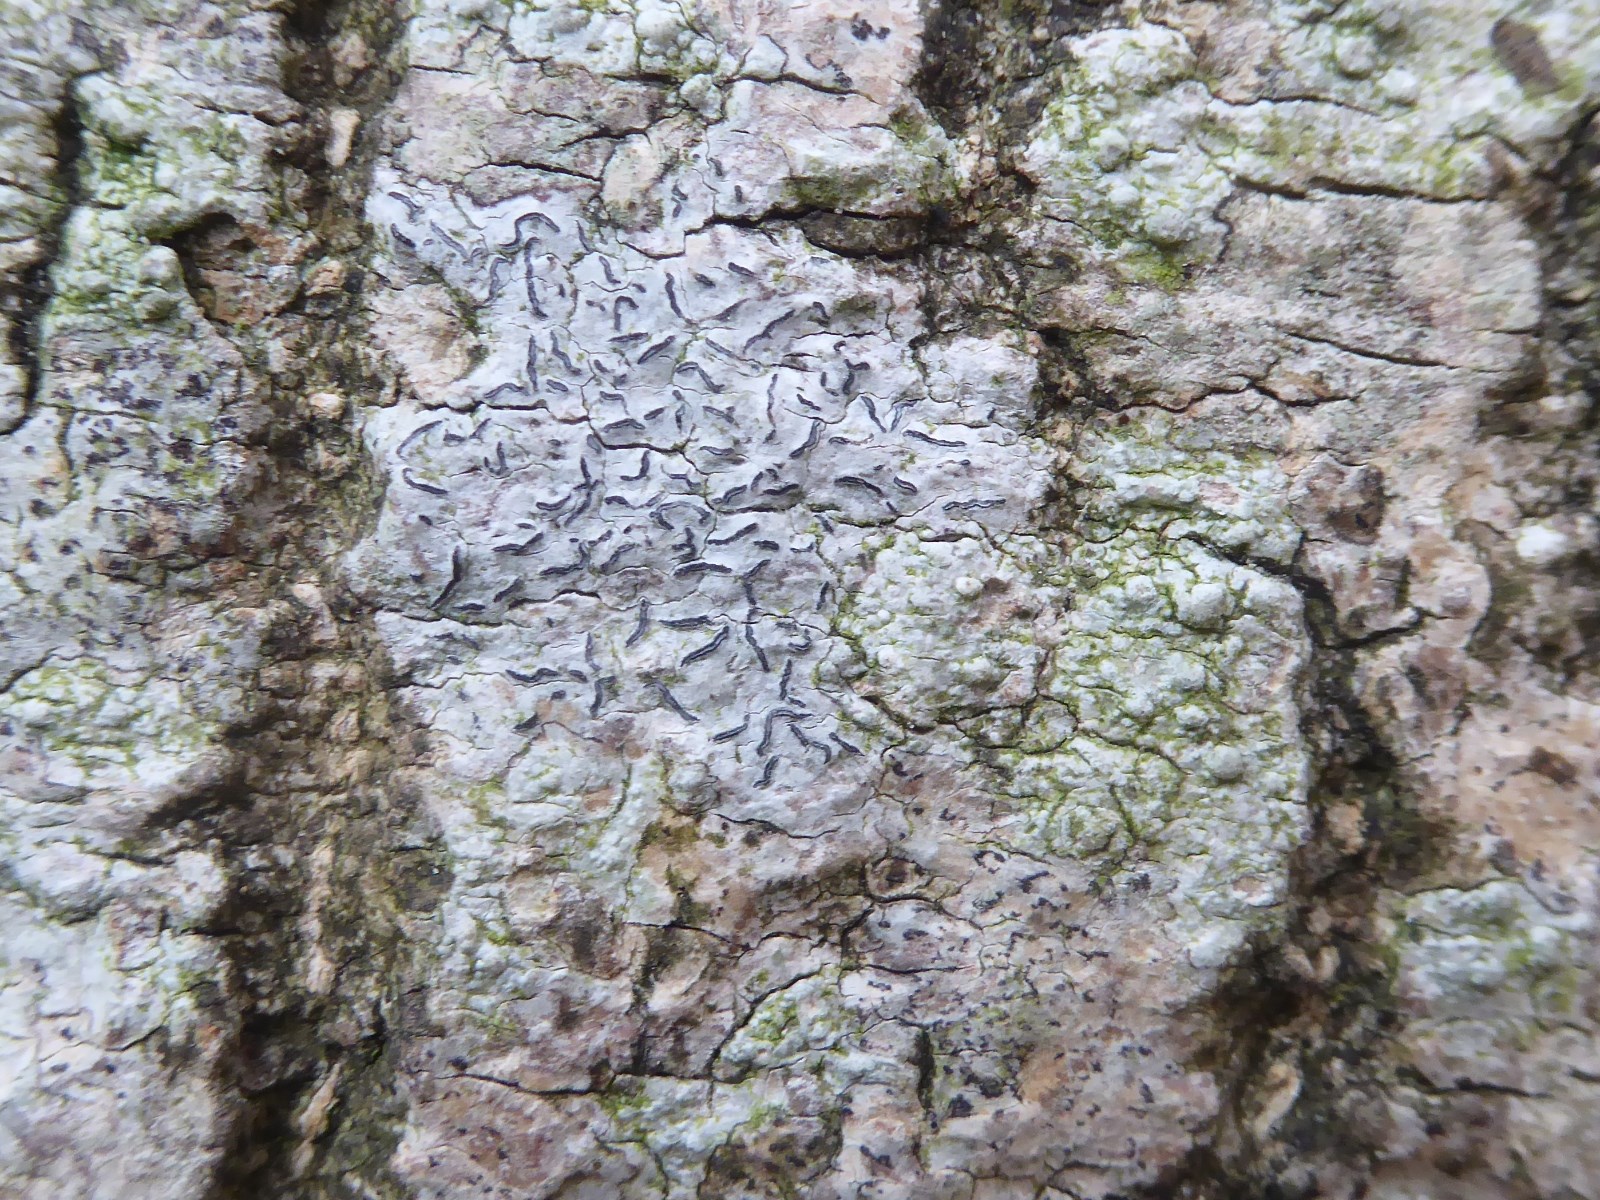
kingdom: Fungi
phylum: Ascomycota
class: Lecanoromycetes
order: Ostropales
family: Graphidaceae
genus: Graphis
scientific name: Graphis scripta
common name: almindelig skriftlav
